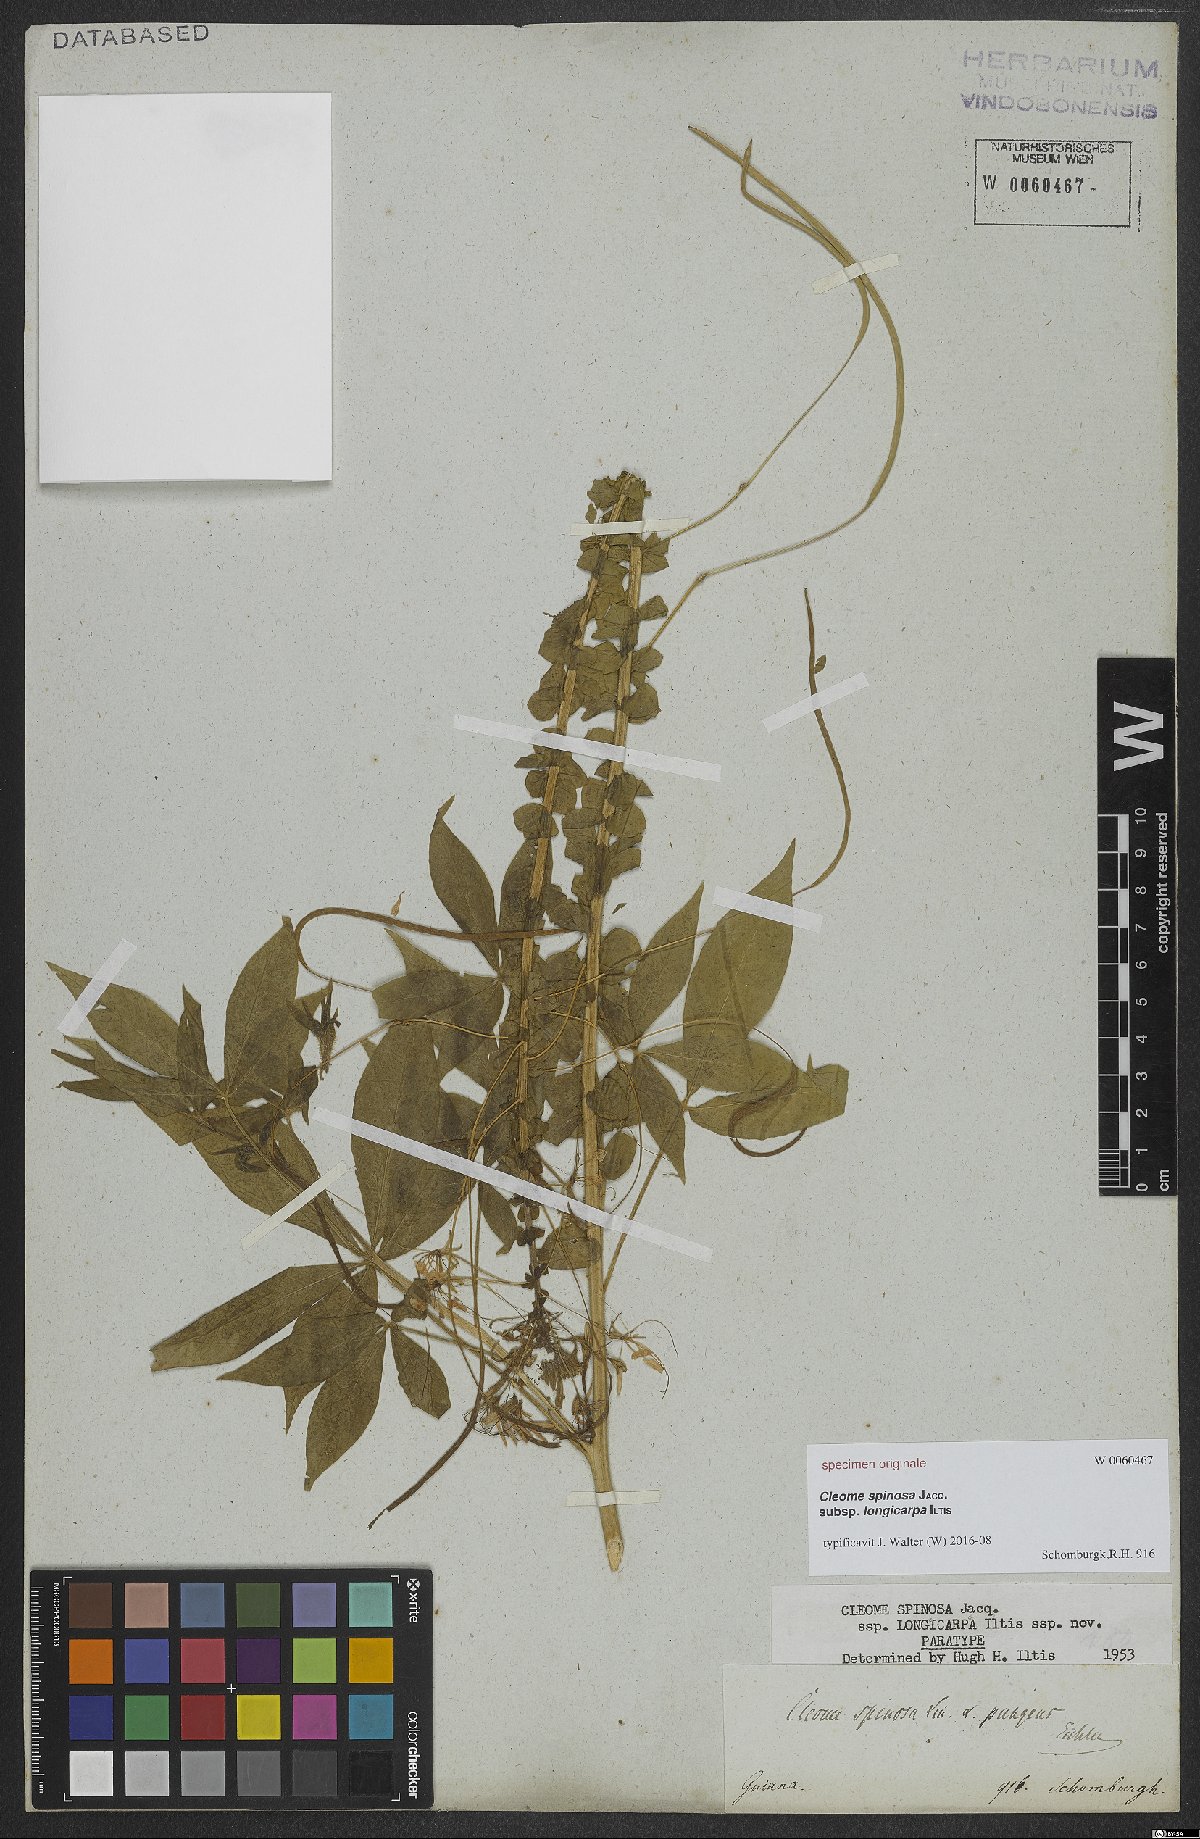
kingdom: Plantae
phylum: Tracheophyta
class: Magnoliopsida
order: Brassicales
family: Cleomaceae
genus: Tarenaya
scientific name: Tarenaya
